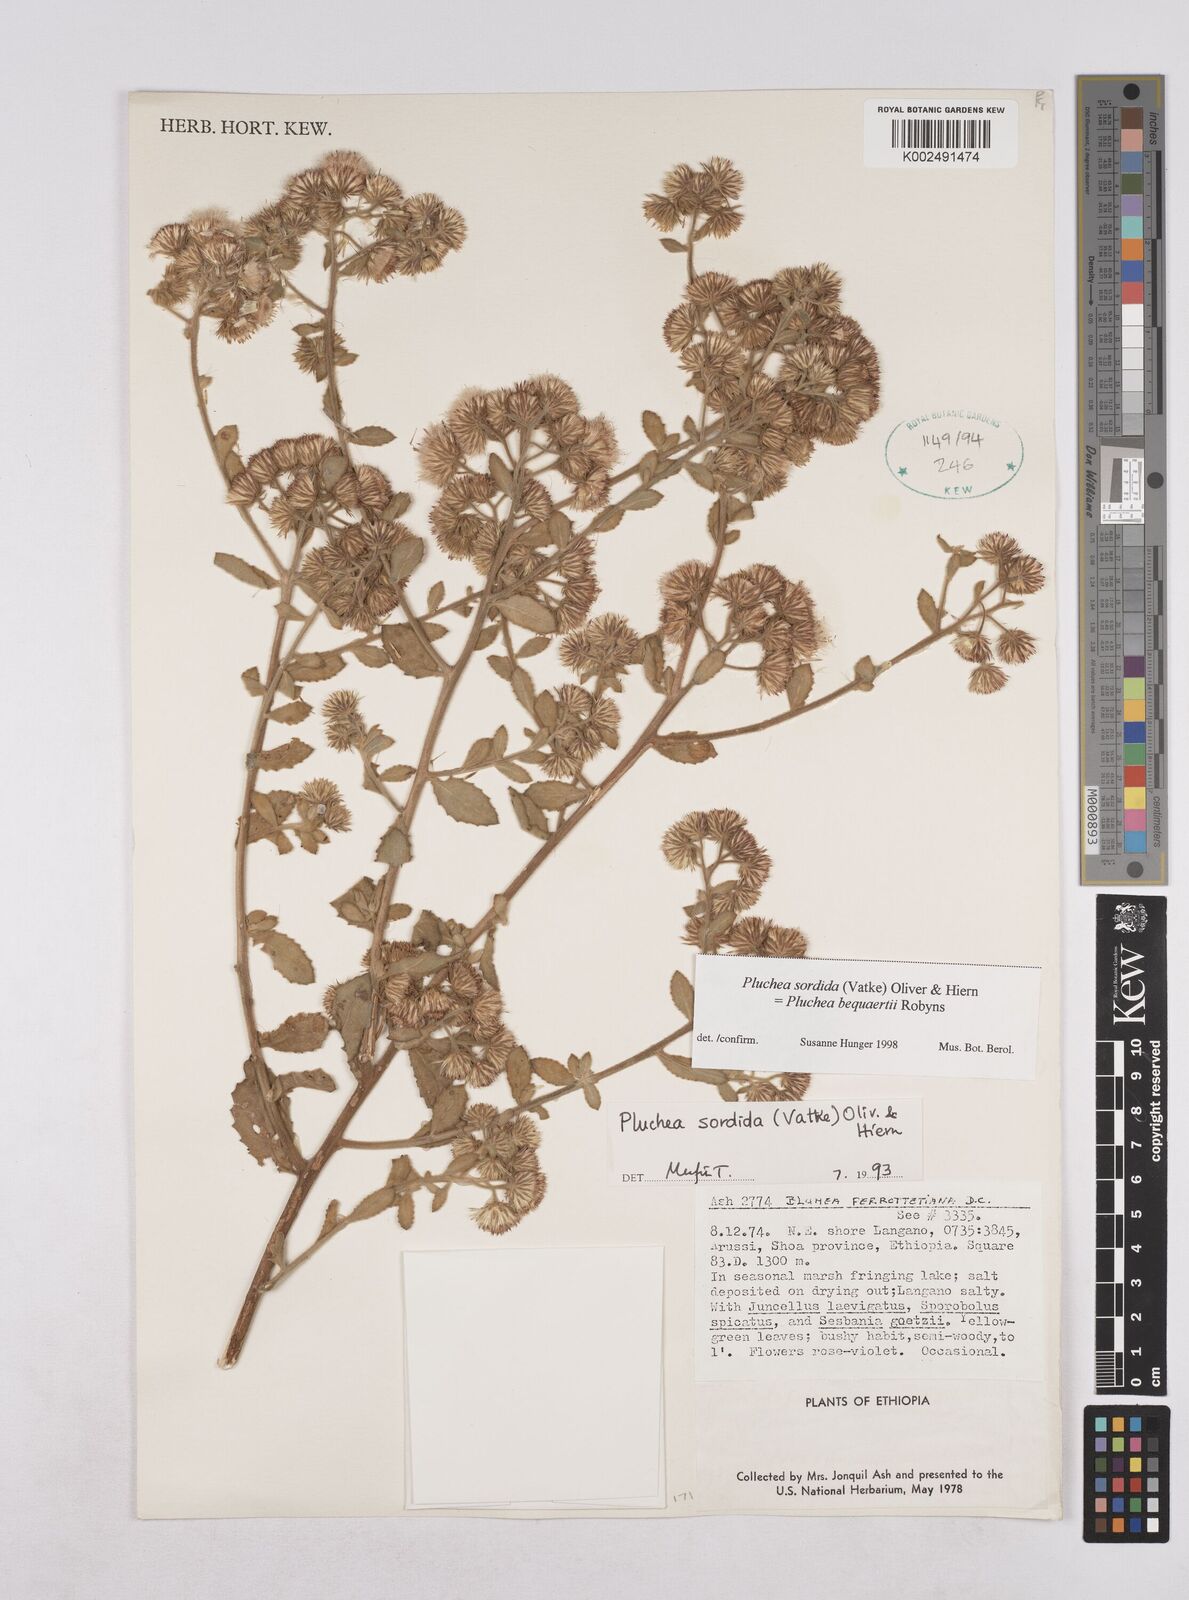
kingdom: Plantae
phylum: Tracheophyta
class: Magnoliopsida
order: Asterales
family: Asteraceae
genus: Pluchea
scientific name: Pluchea sordida
